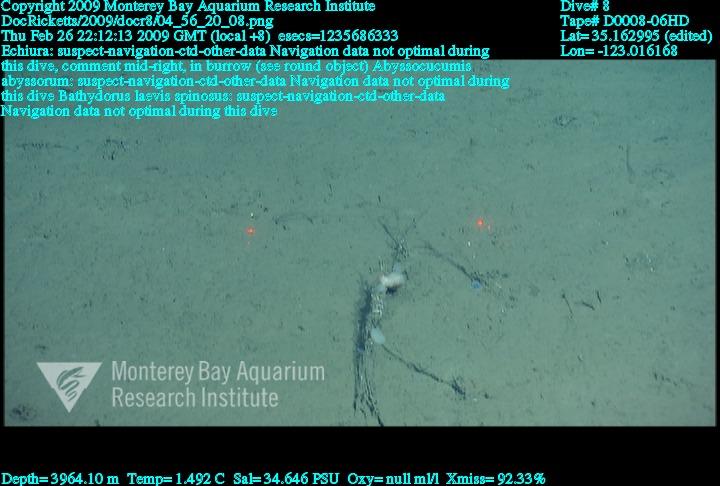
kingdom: Animalia
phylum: Porifera
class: Hexactinellida
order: Lyssacinosida
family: Rossellidae
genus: Bathydorus
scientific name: Bathydorus spinosus
